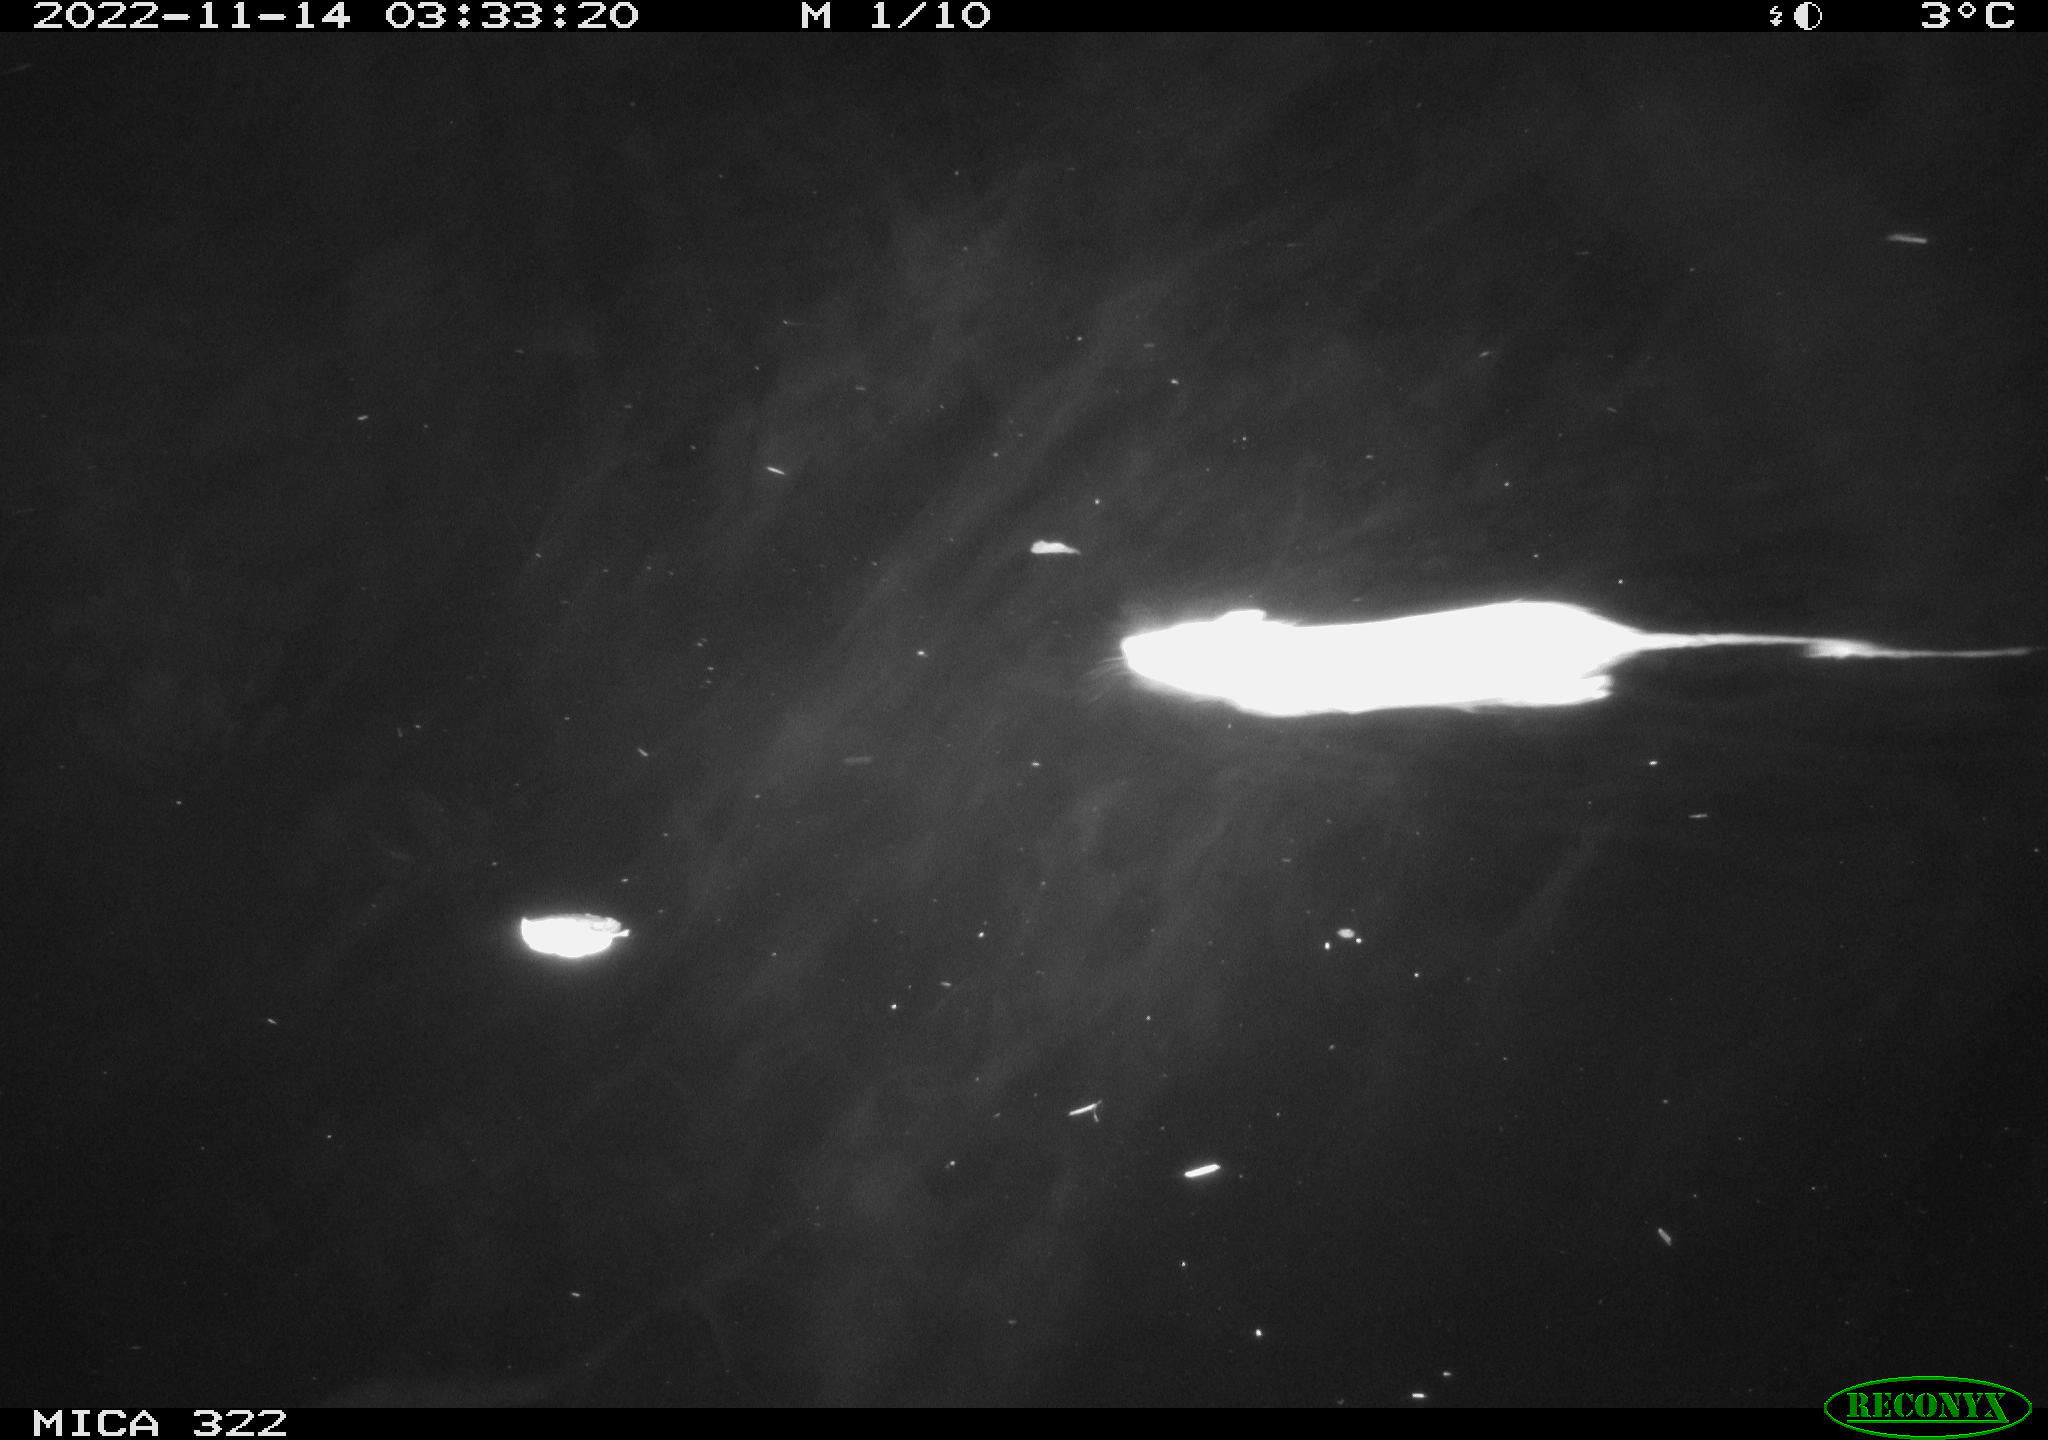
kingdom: Animalia
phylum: Chordata
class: Mammalia
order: Rodentia
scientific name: Rodentia
